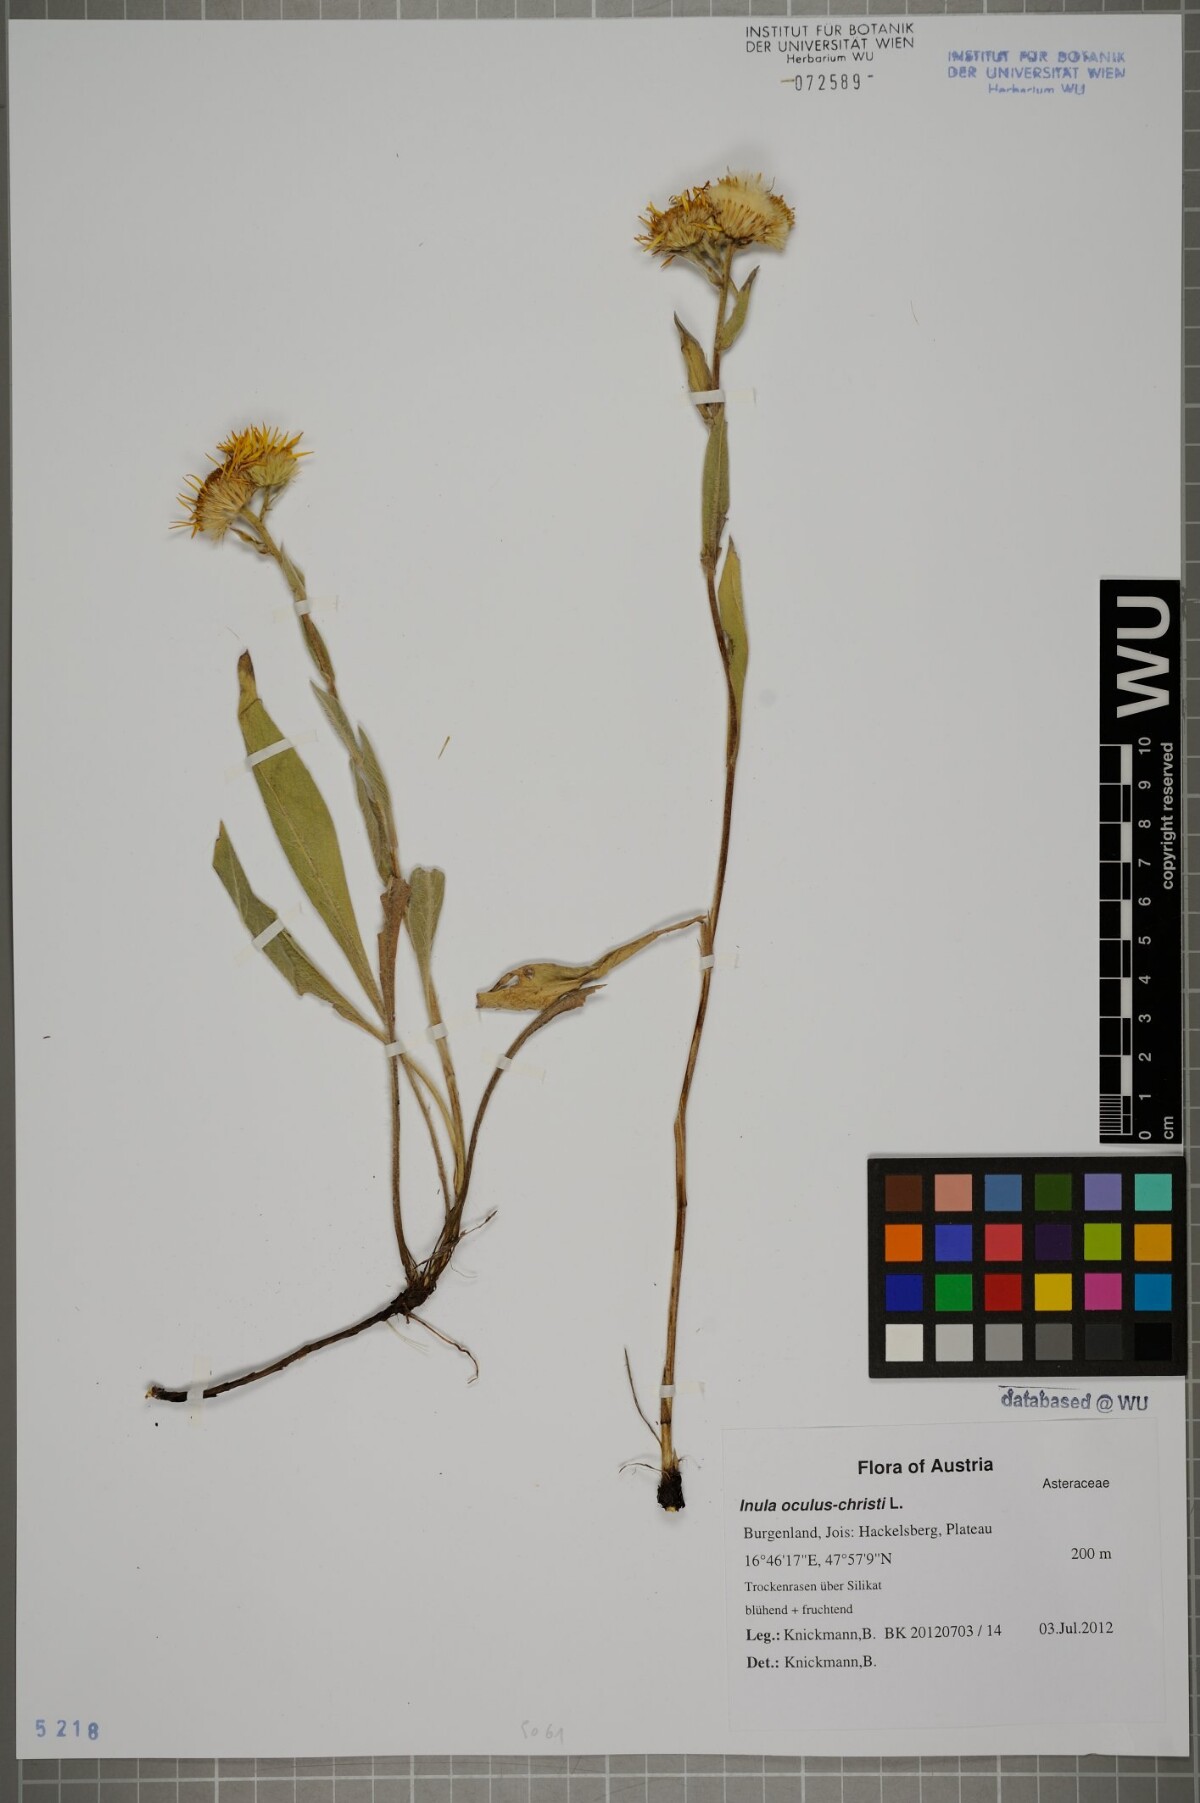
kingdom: Plantae
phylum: Tracheophyta
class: Magnoliopsida
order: Asterales
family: Asteraceae
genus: Pentanema
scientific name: Pentanema oculus-christi
